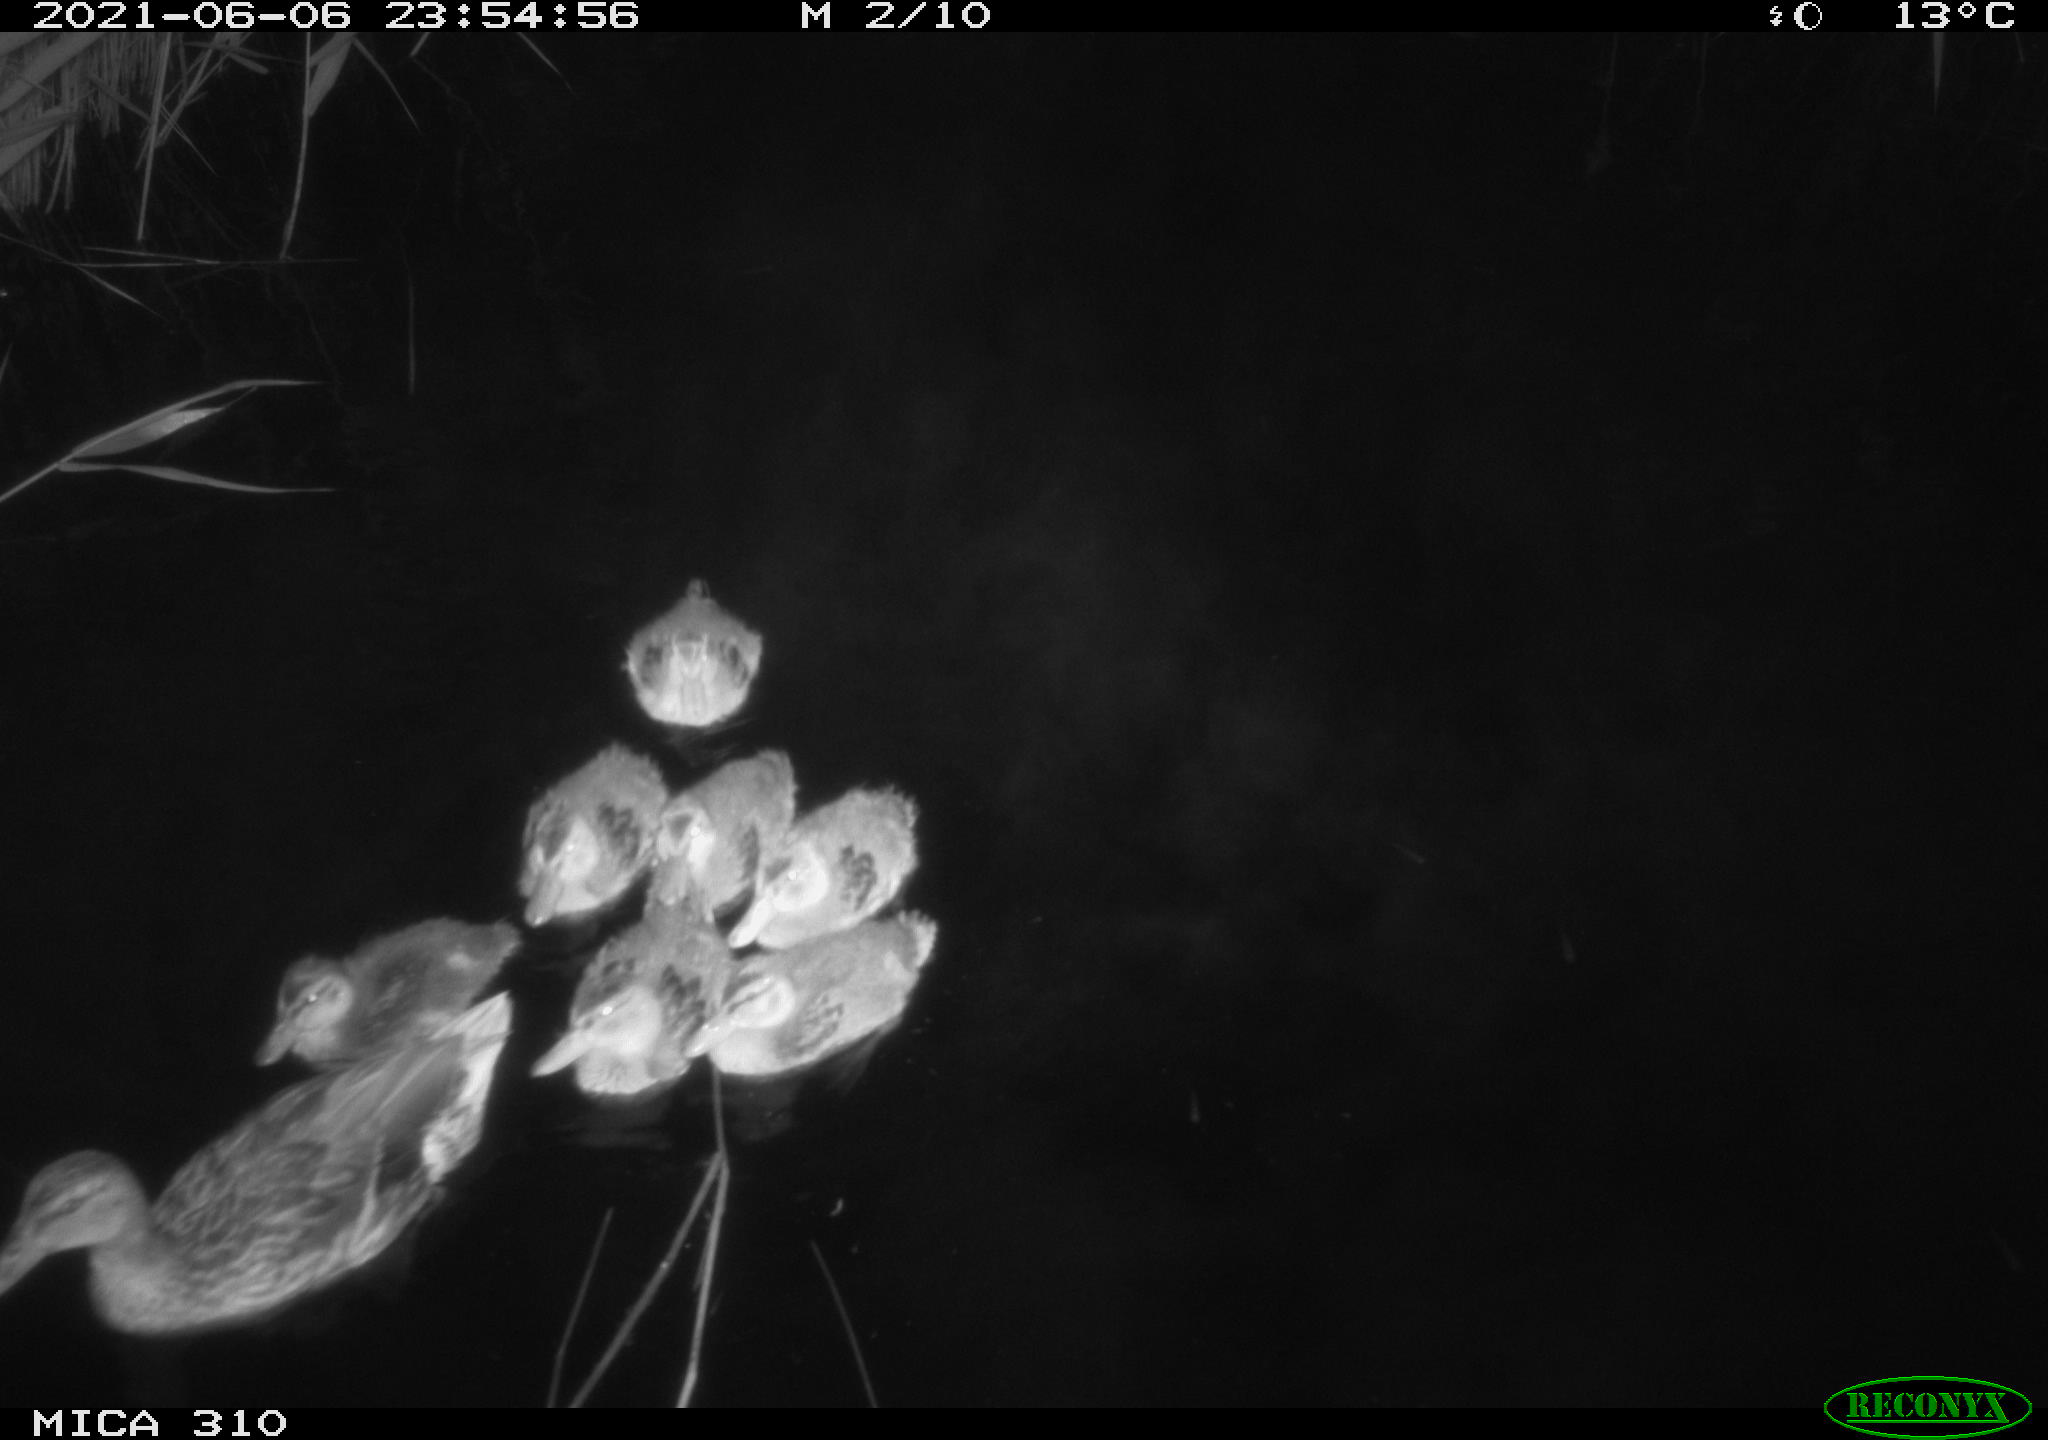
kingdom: Animalia
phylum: Chordata
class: Aves
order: Anseriformes
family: Anatidae
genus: Anas
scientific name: Anas
